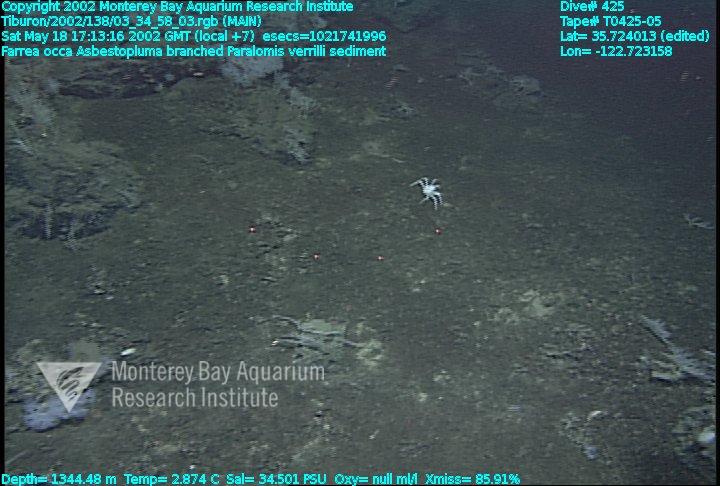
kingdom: Animalia
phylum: Porifera
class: Hexactinellida
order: Sceptrulophora
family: Farreidae
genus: Farrea
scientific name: Farrea occa
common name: Reversed glass sponge
